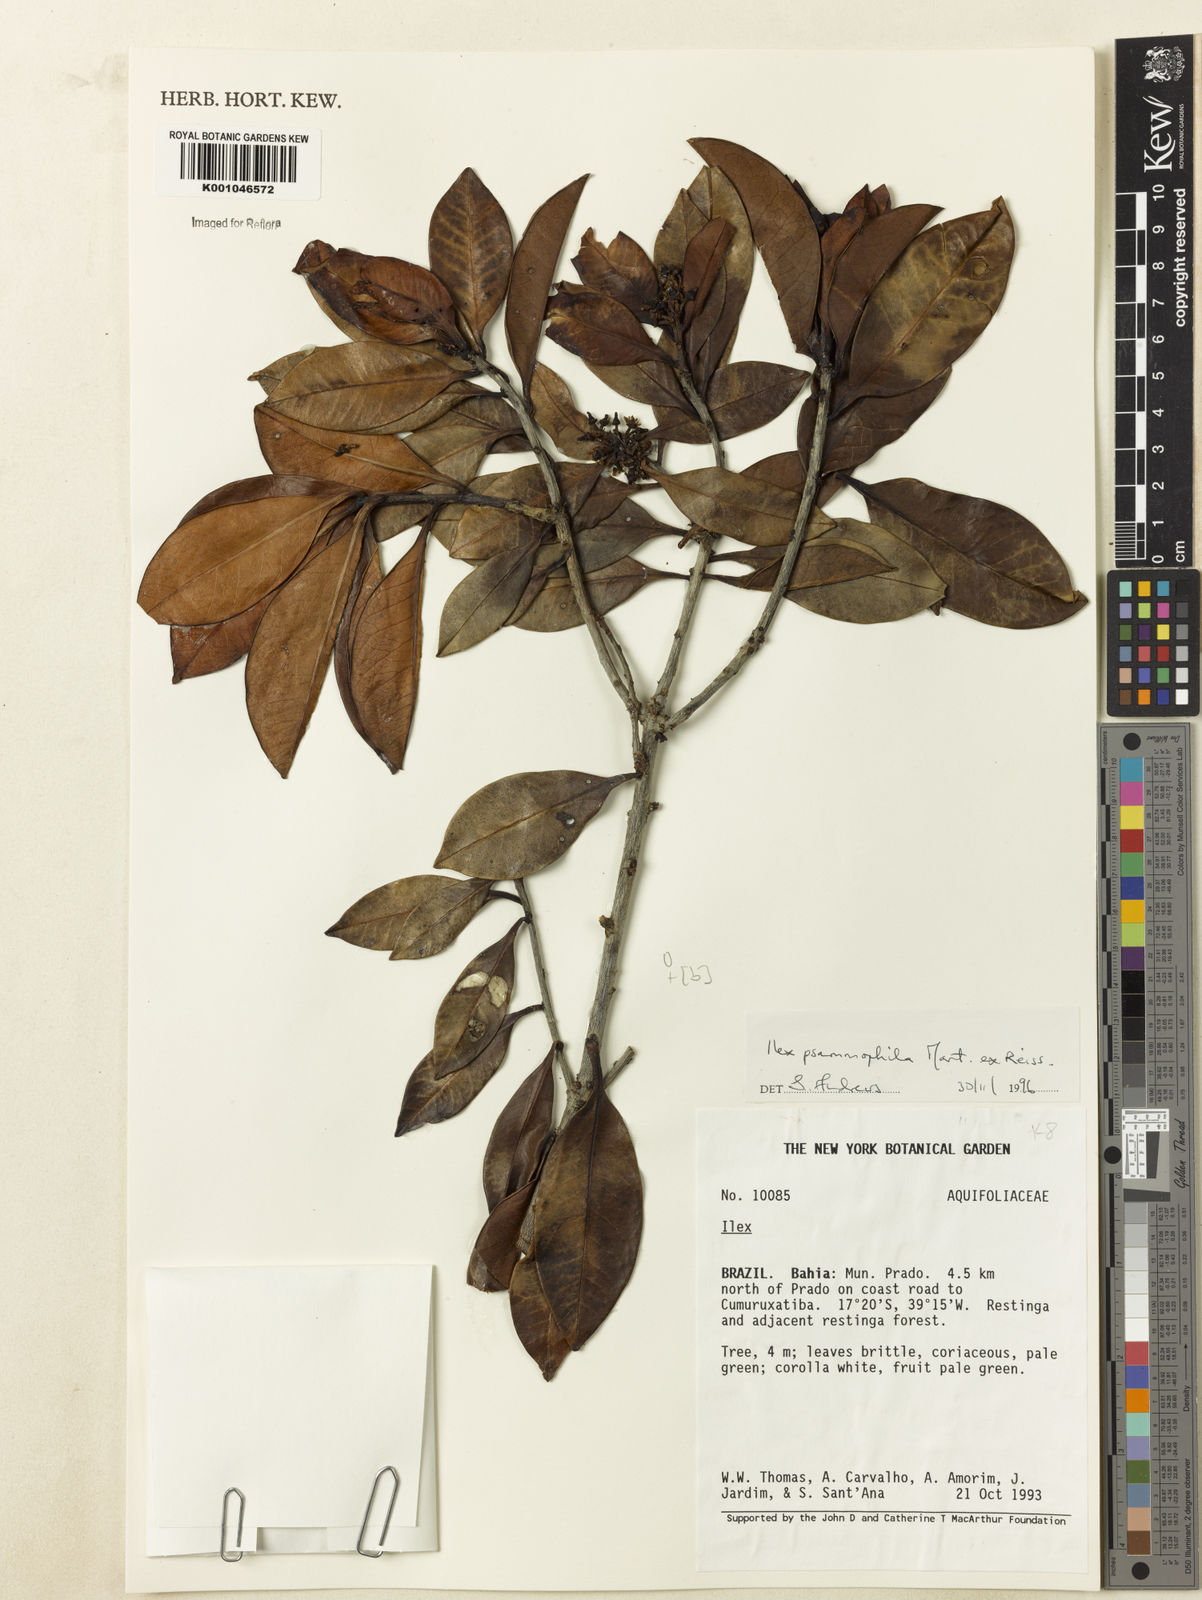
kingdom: Plantae
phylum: Tracheophyta
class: Magnoliopsida
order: Aquifoliales
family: Aquifoliaceae
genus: Ilex
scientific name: Ilex psammophila
